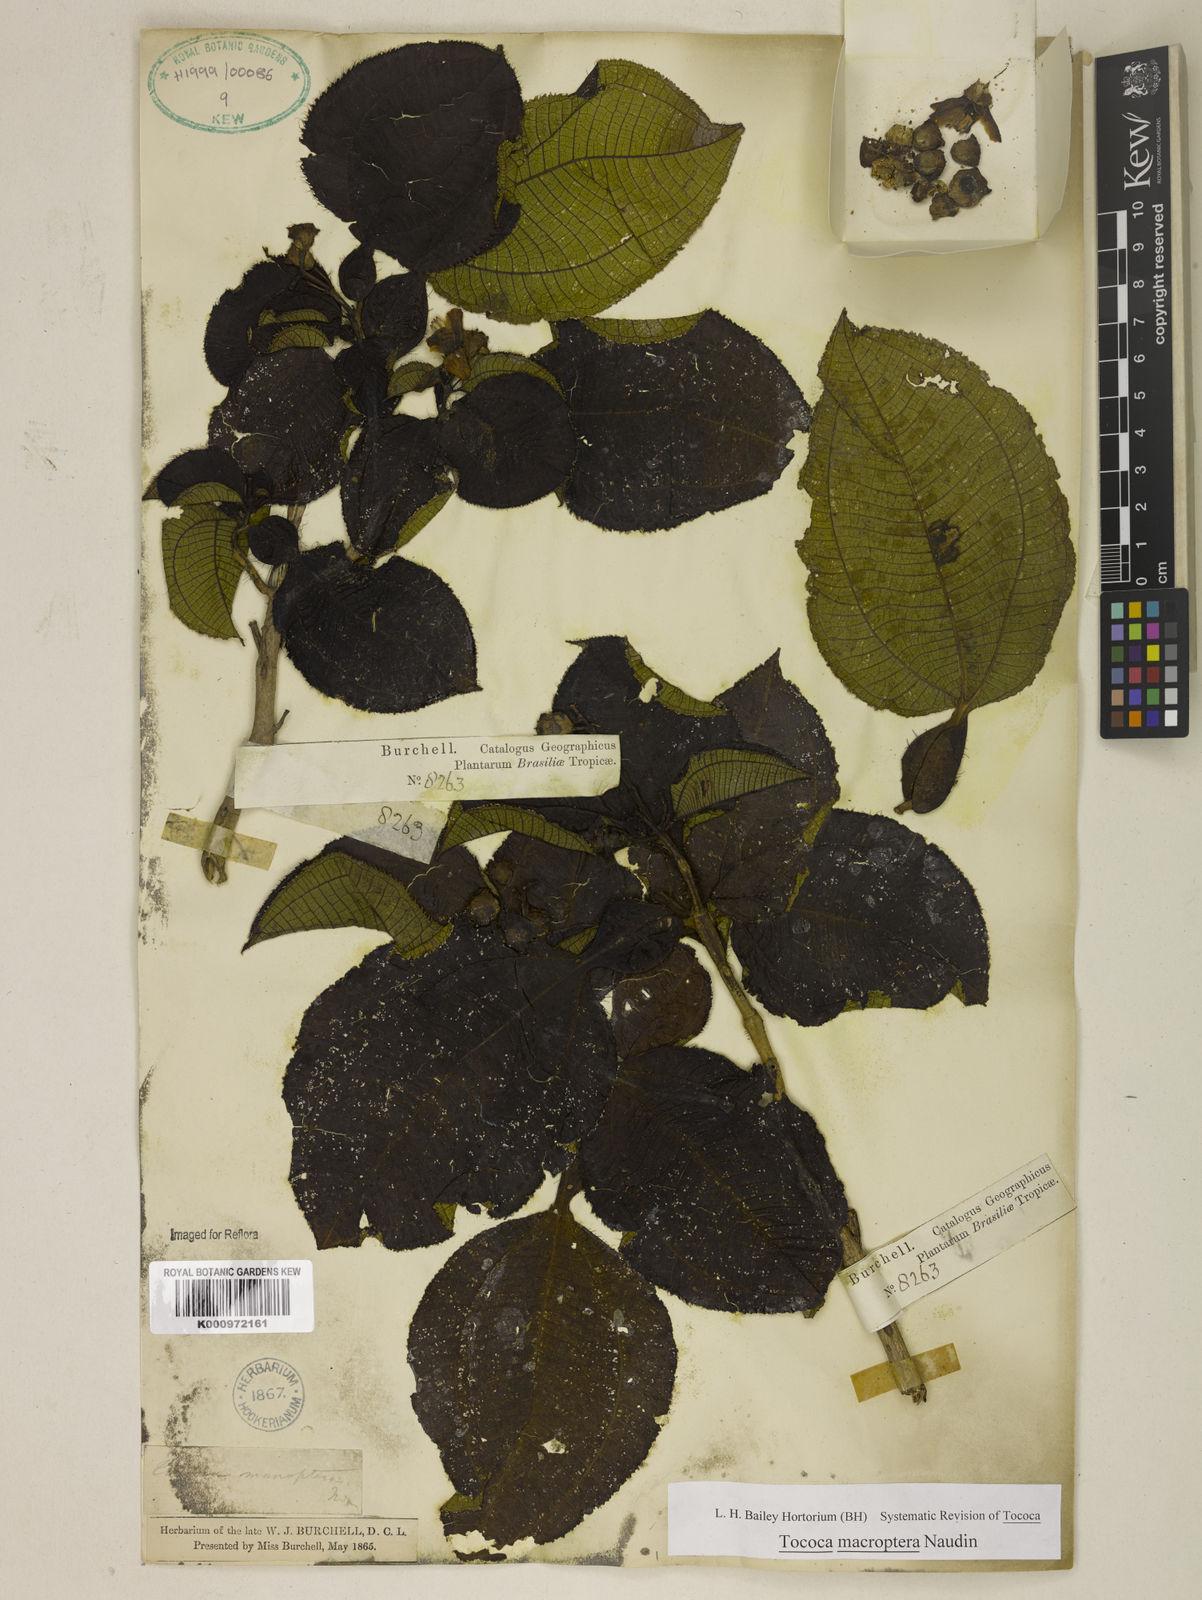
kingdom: Plantae
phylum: Tracheophyta
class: Magnoliopsida
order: Myrtales
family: Melastomataceae
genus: Miconia
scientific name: Miconia macroptera
